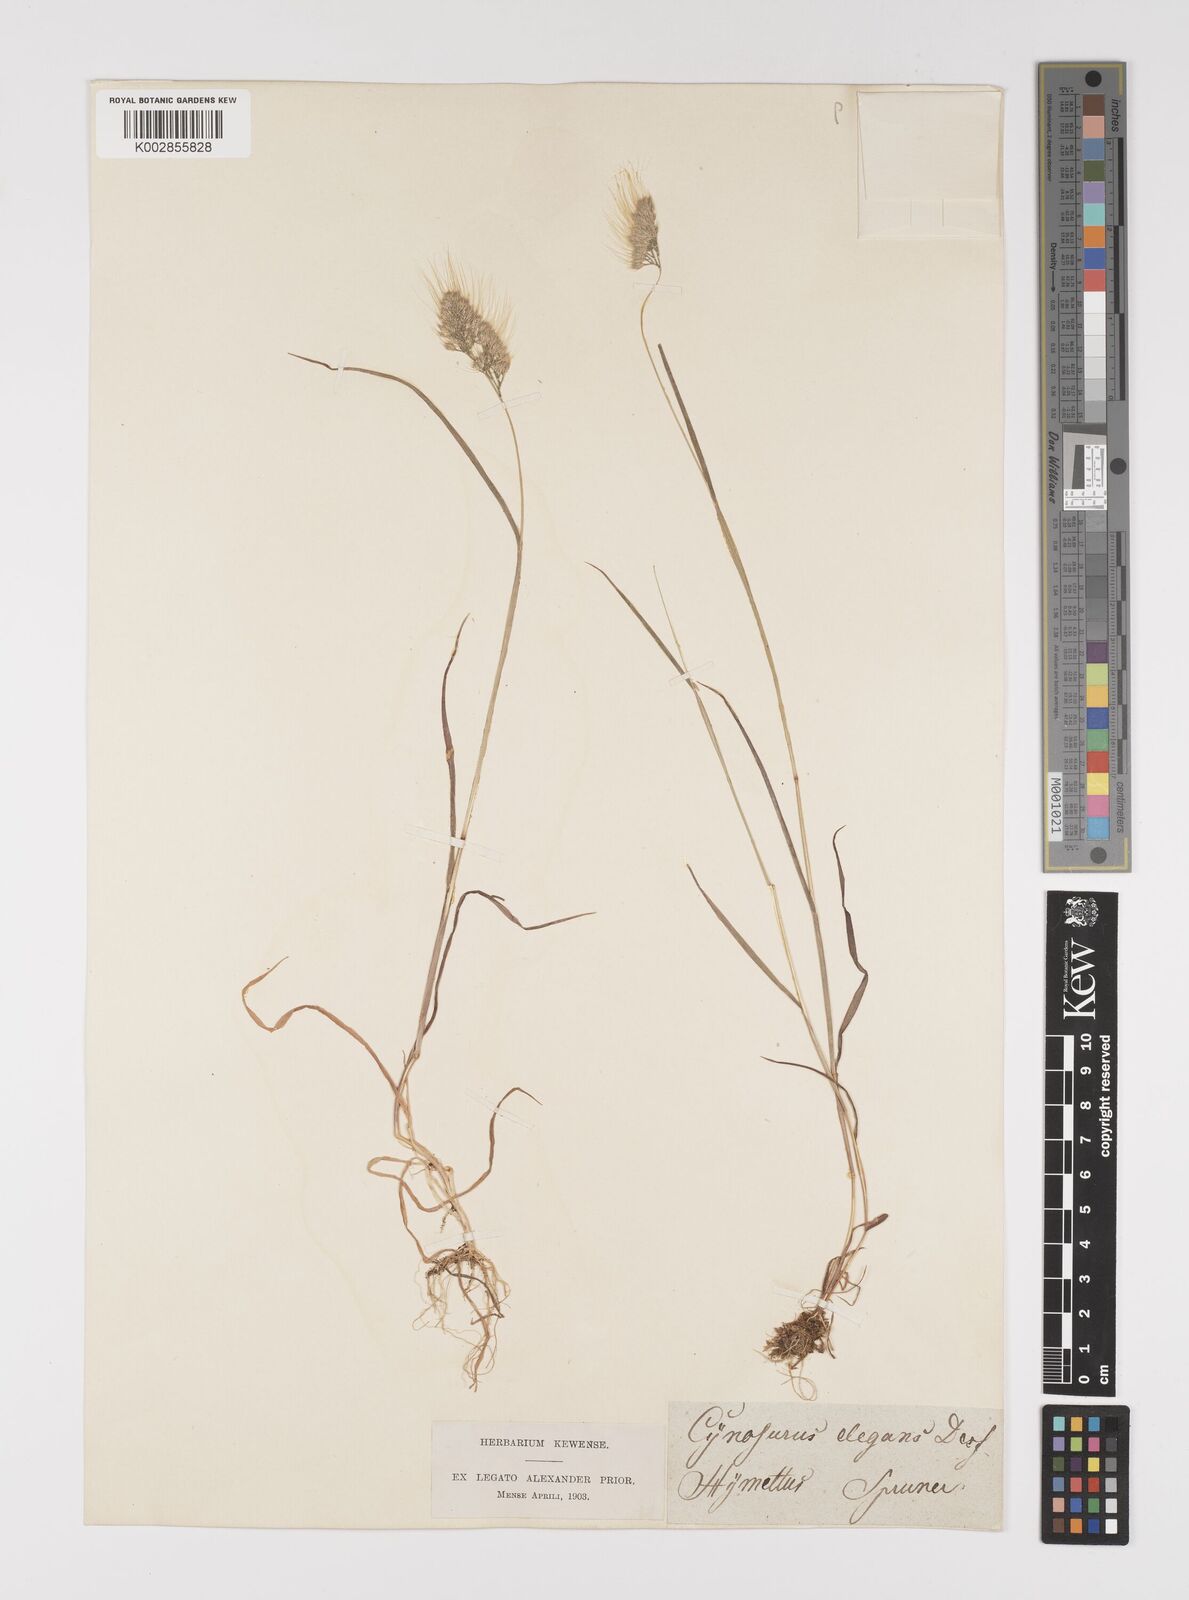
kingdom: Plantae
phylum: Tracheophyta
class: Liliopsida
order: Poales
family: Poaceae
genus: Cynosurus
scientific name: Cynosurus elegans
